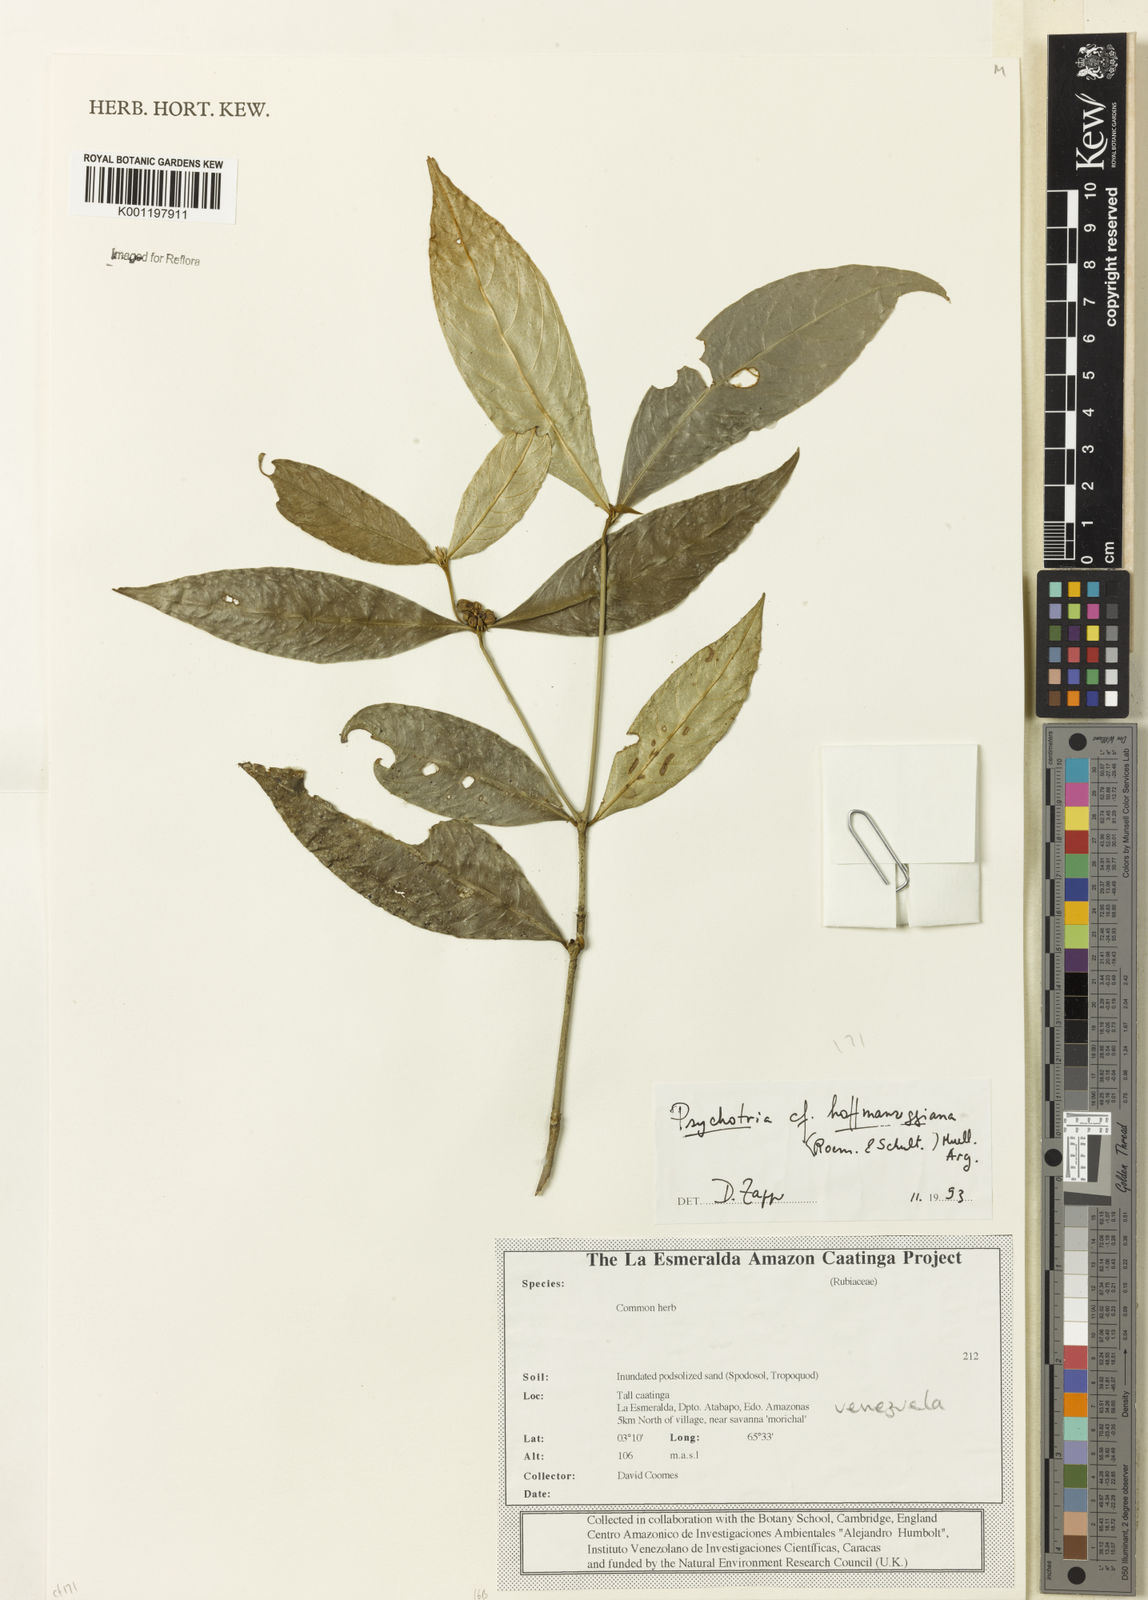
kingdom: Plantae
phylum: Tracheophyta
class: Magnoliopsida
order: Gentianales
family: Rubiaceae
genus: Psychotria
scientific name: Psychotria
